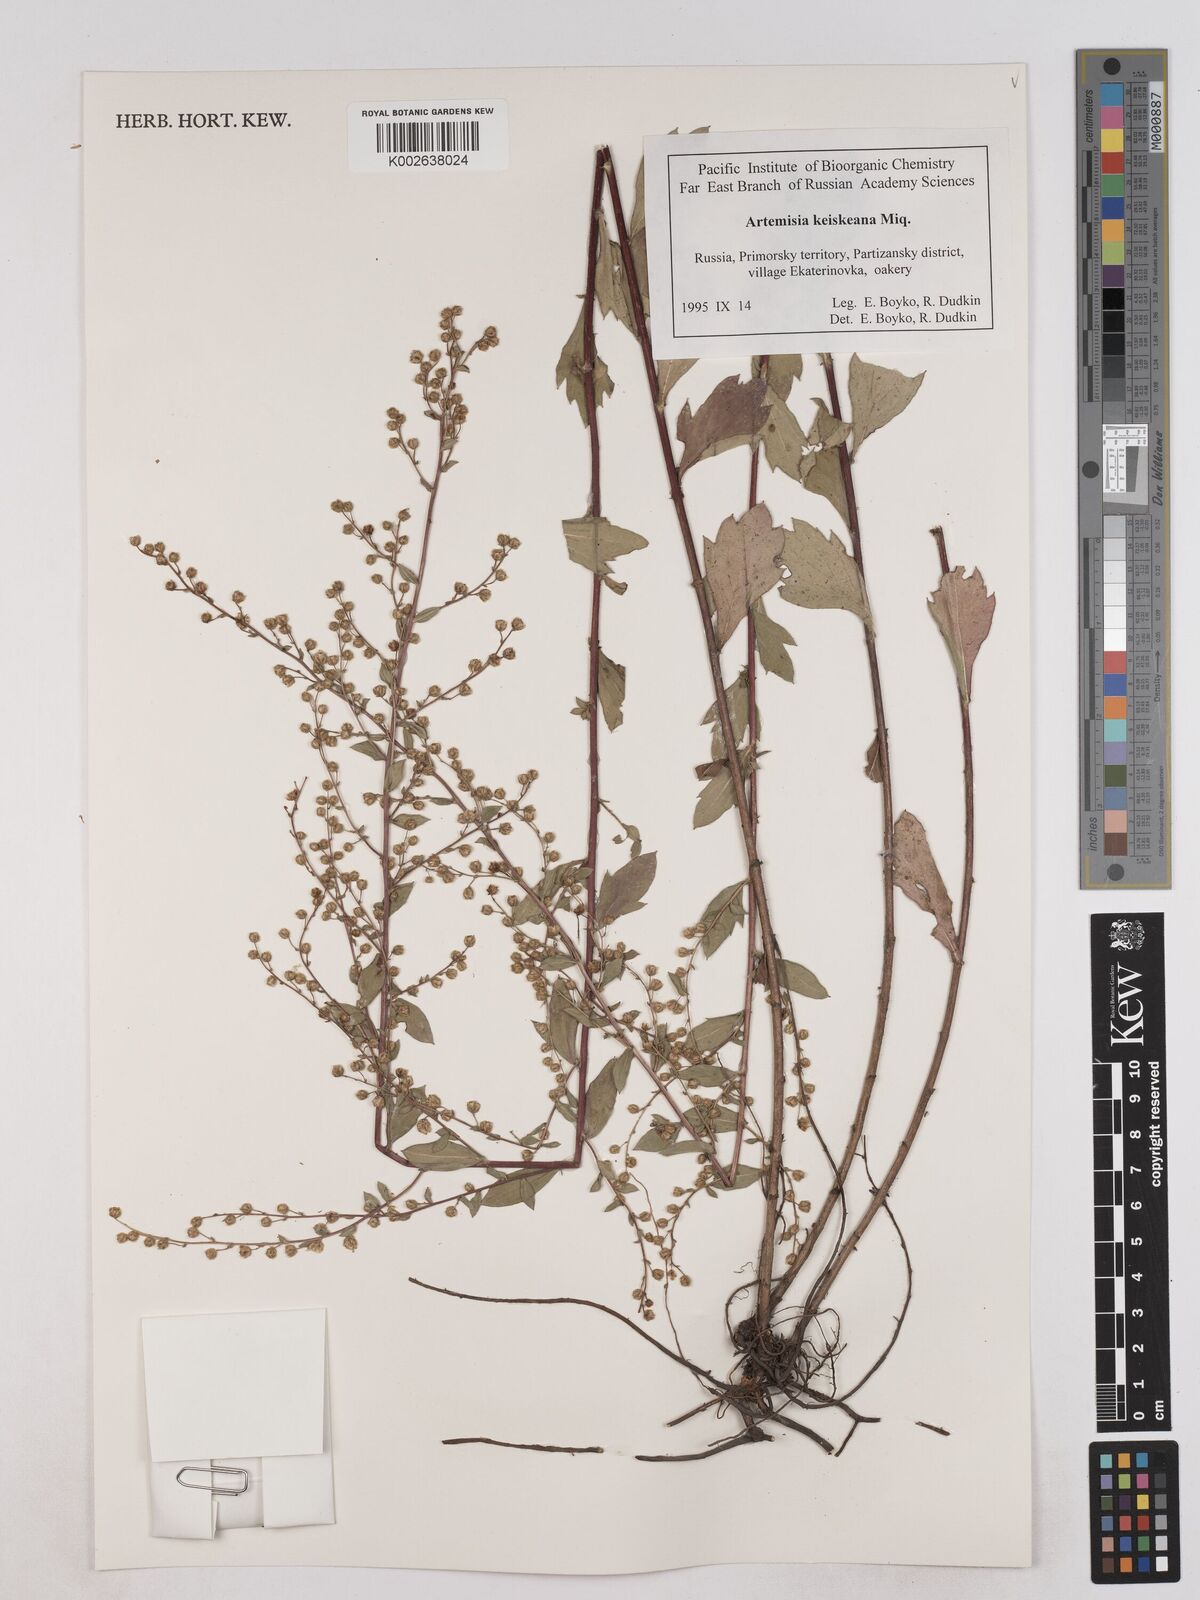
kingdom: Plantae
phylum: Tracheophyta
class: Magnoliopsida
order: Asterales
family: Asteraceae
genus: Artemisia
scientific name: Artemisia keiskeana
